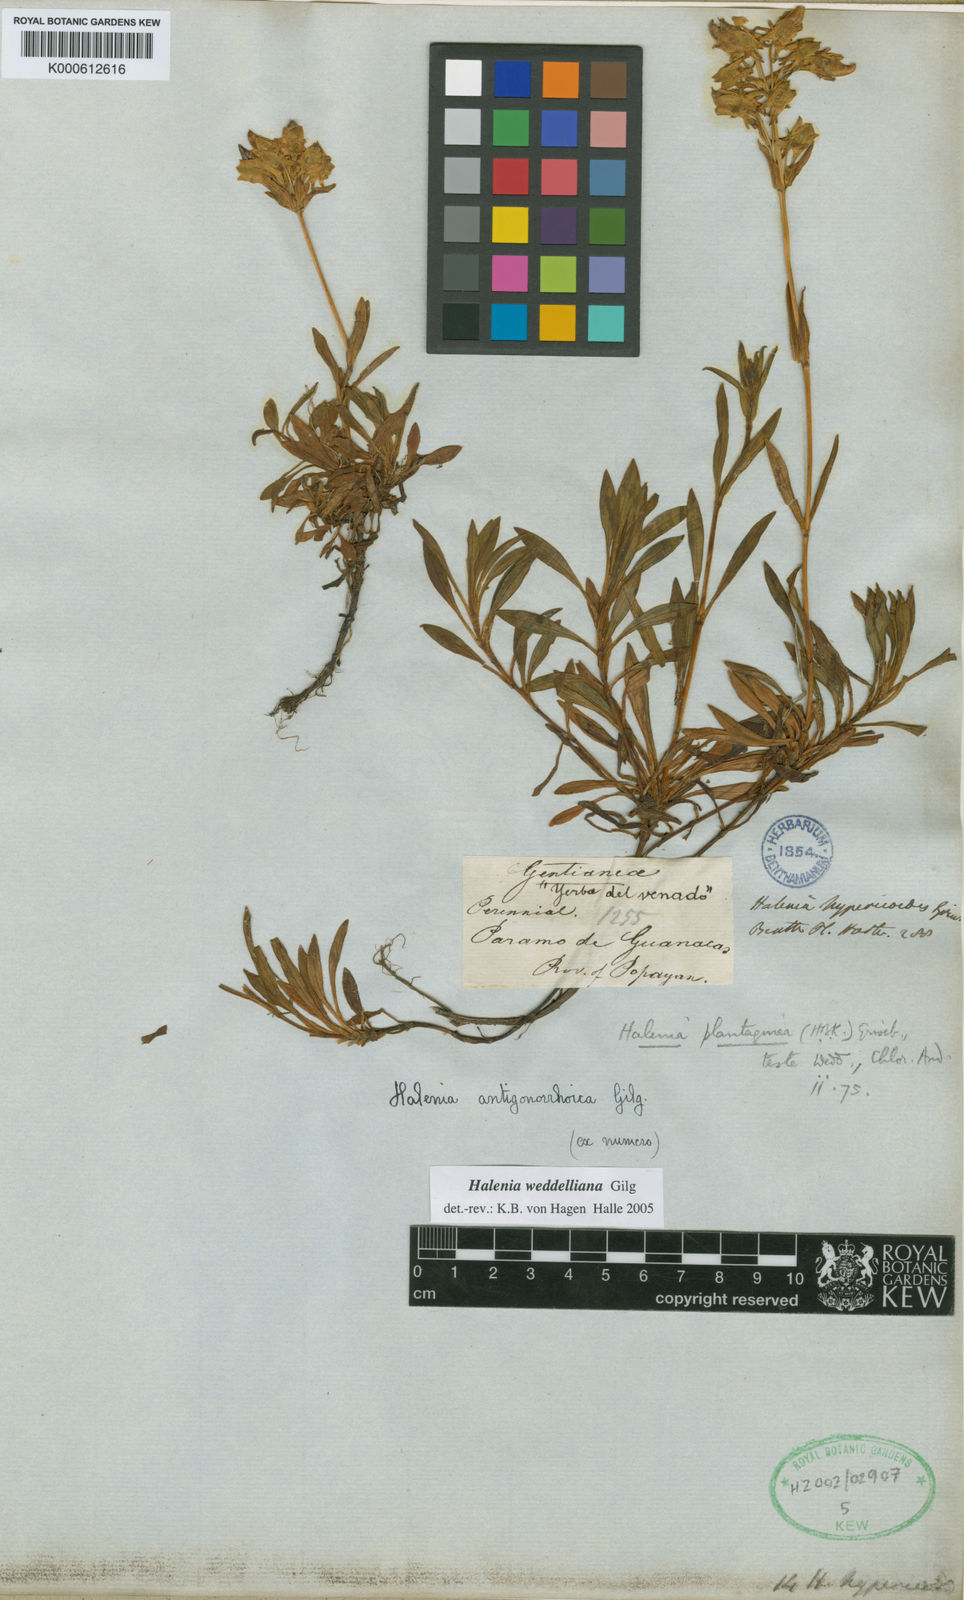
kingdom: Plantae
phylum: Tracheophyta
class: Magnoliopsida
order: Gentianales
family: Gentianaceae
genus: Halenia
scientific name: Halenia weddelliana
